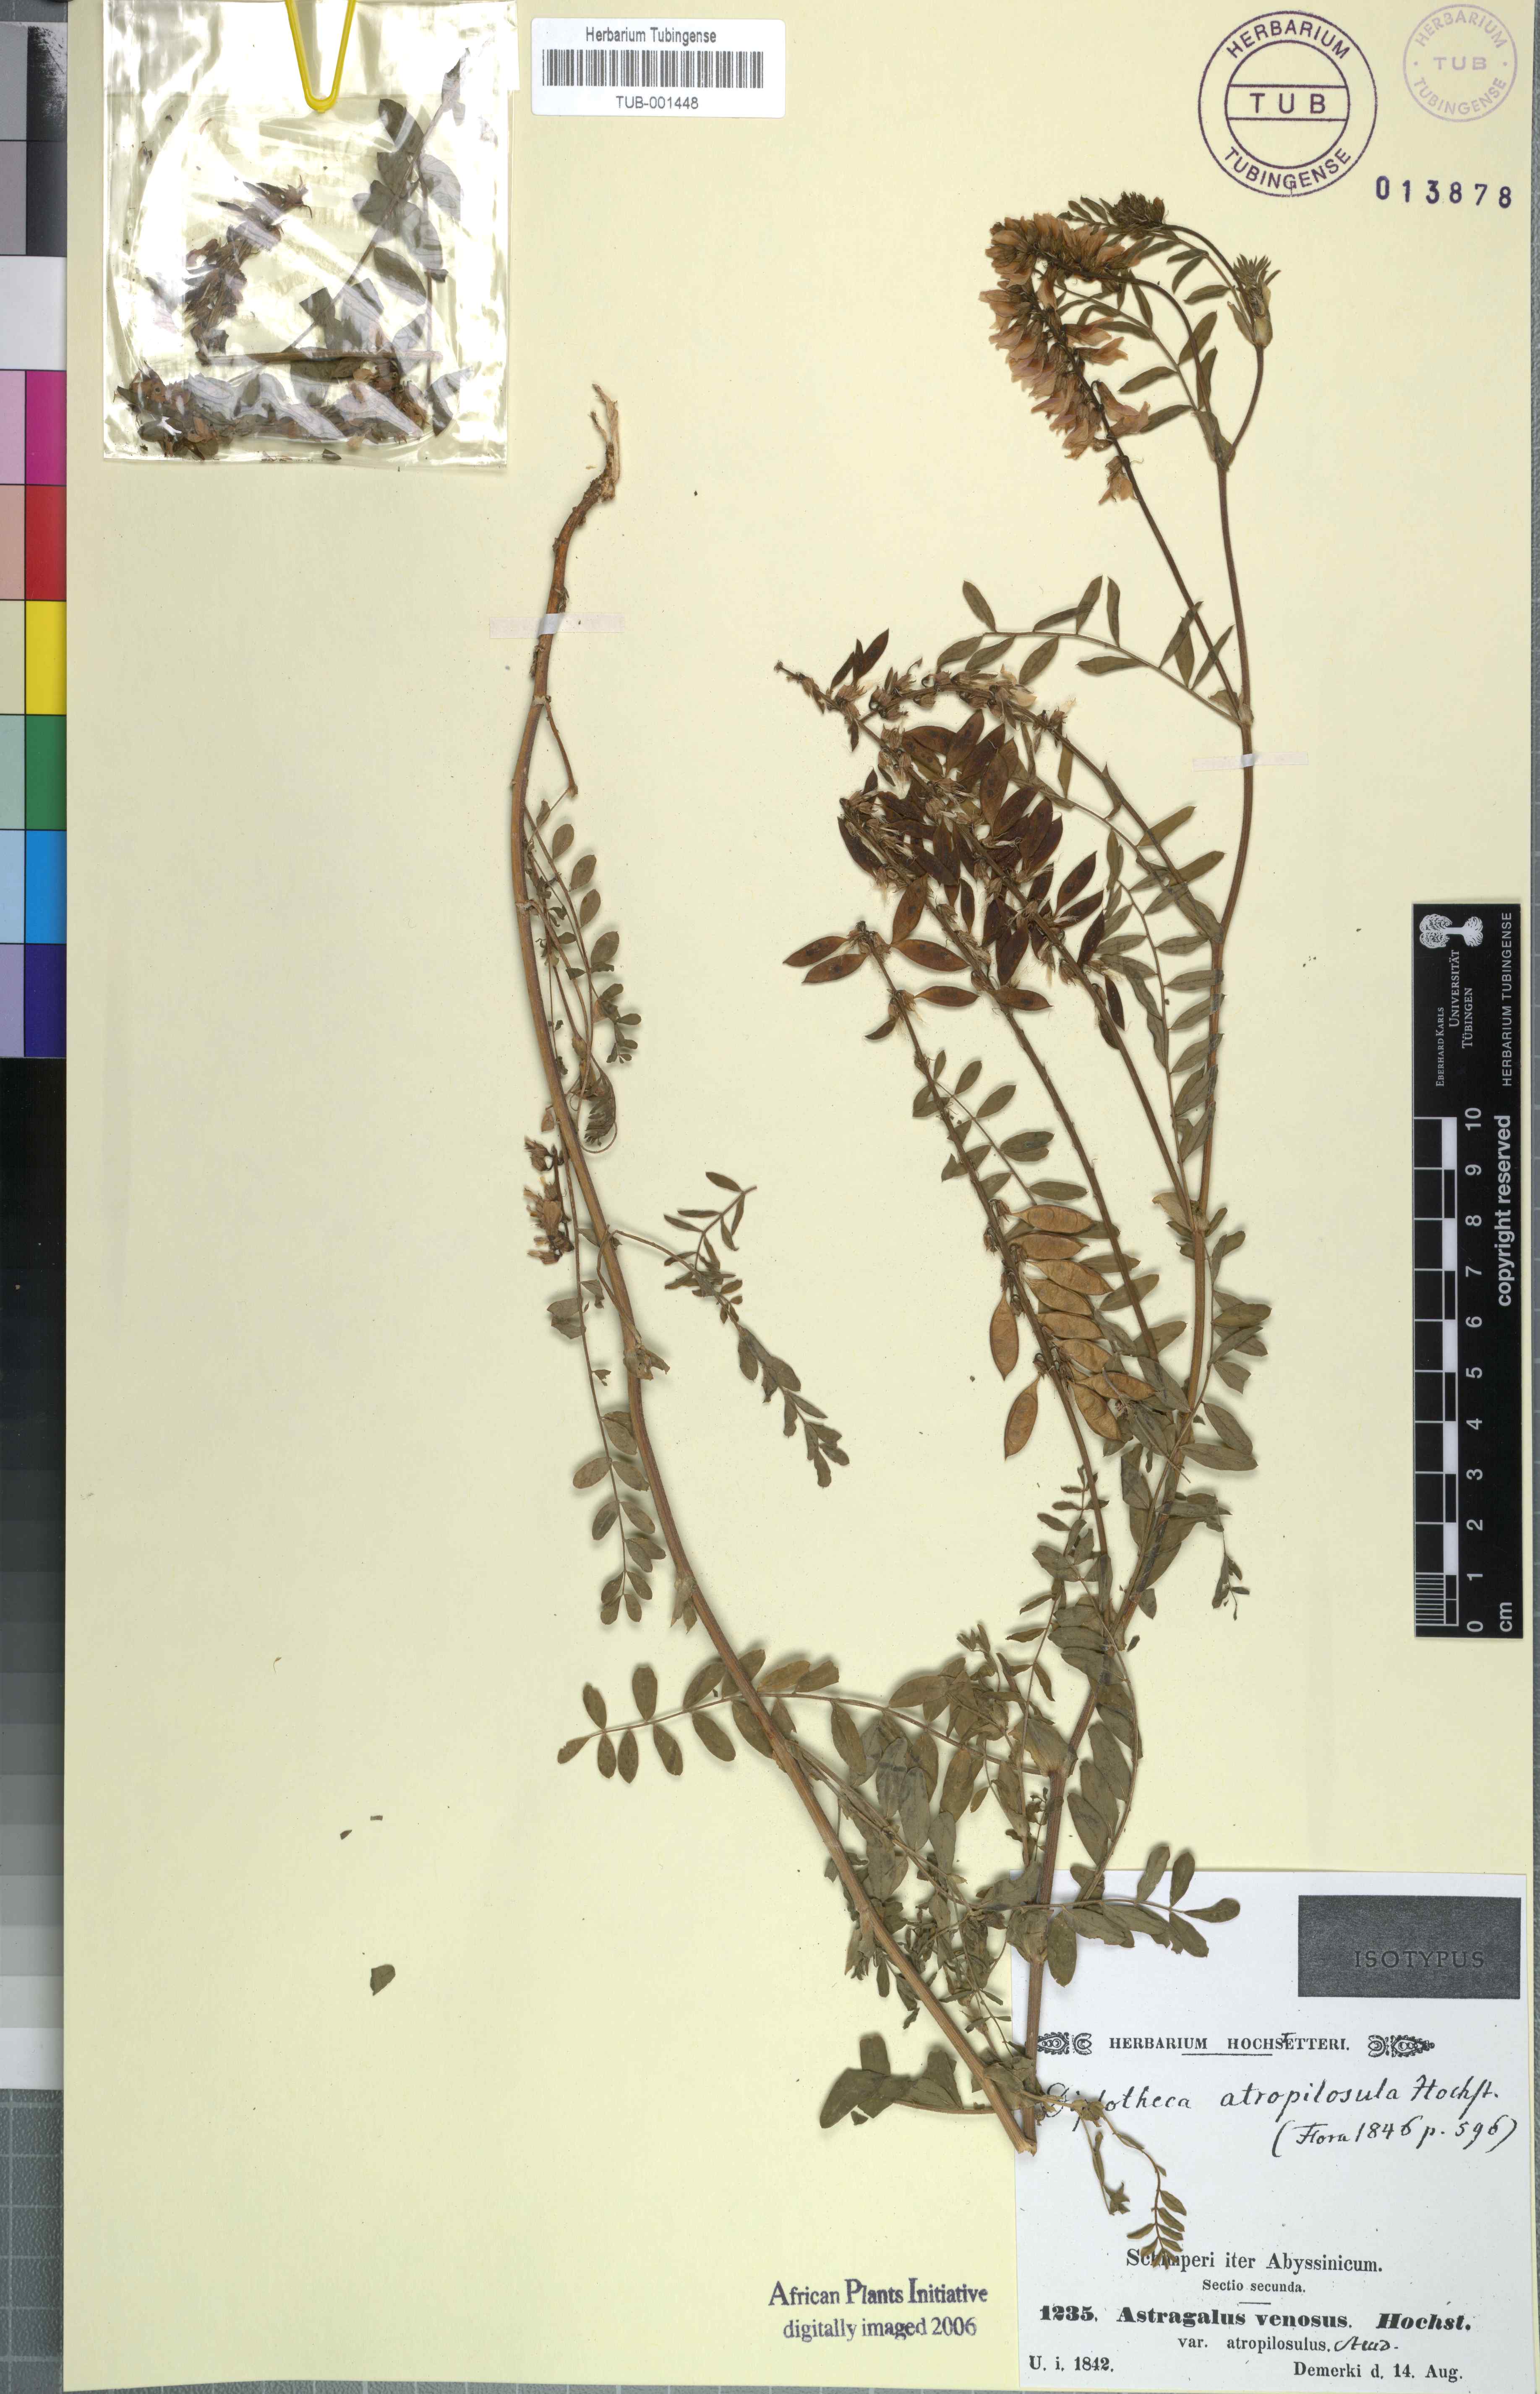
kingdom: Plantae
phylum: Tracheophyta
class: Magnoliopsida
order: Fabales
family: Fabaceae
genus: Astragalus
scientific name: Astragalus atropilosulus
